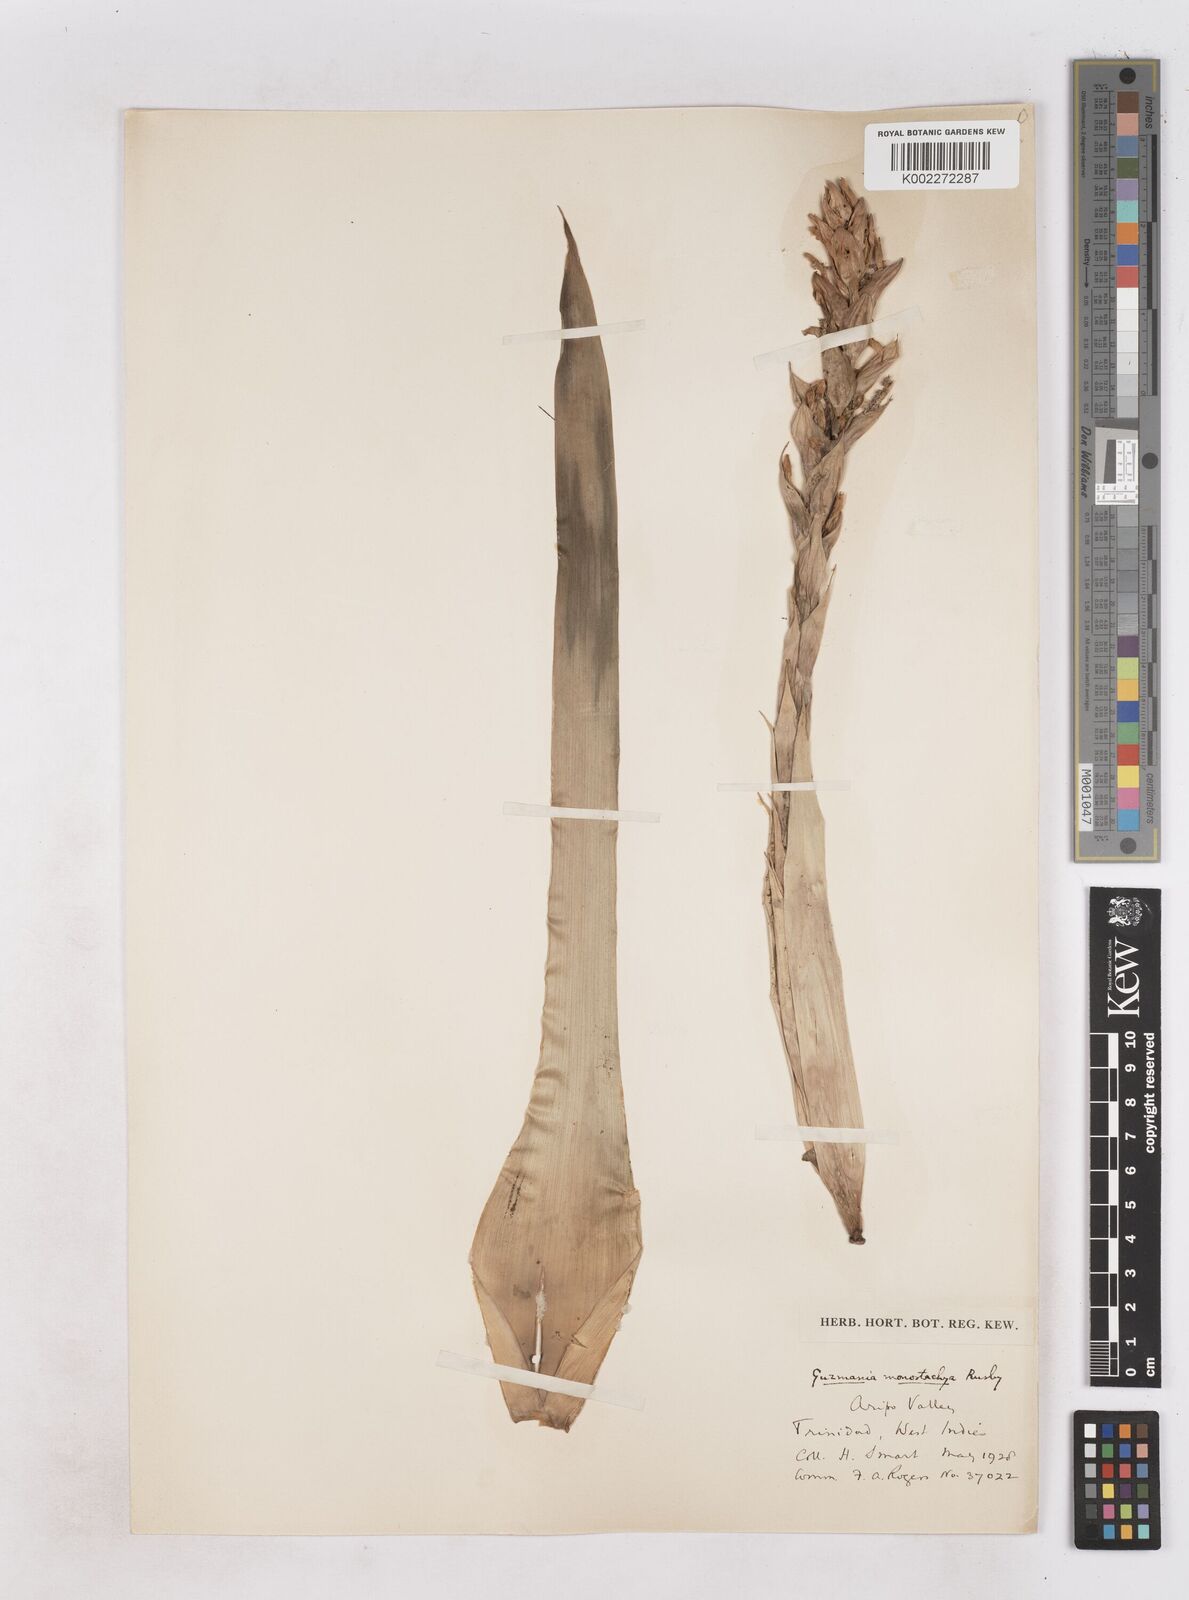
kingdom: Plantae
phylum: Tracheophyta
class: Liliopsida
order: Poales
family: Bromeliaceae
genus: Guzmania
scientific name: Guzmania monostachia
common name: West indian tufted airplant
